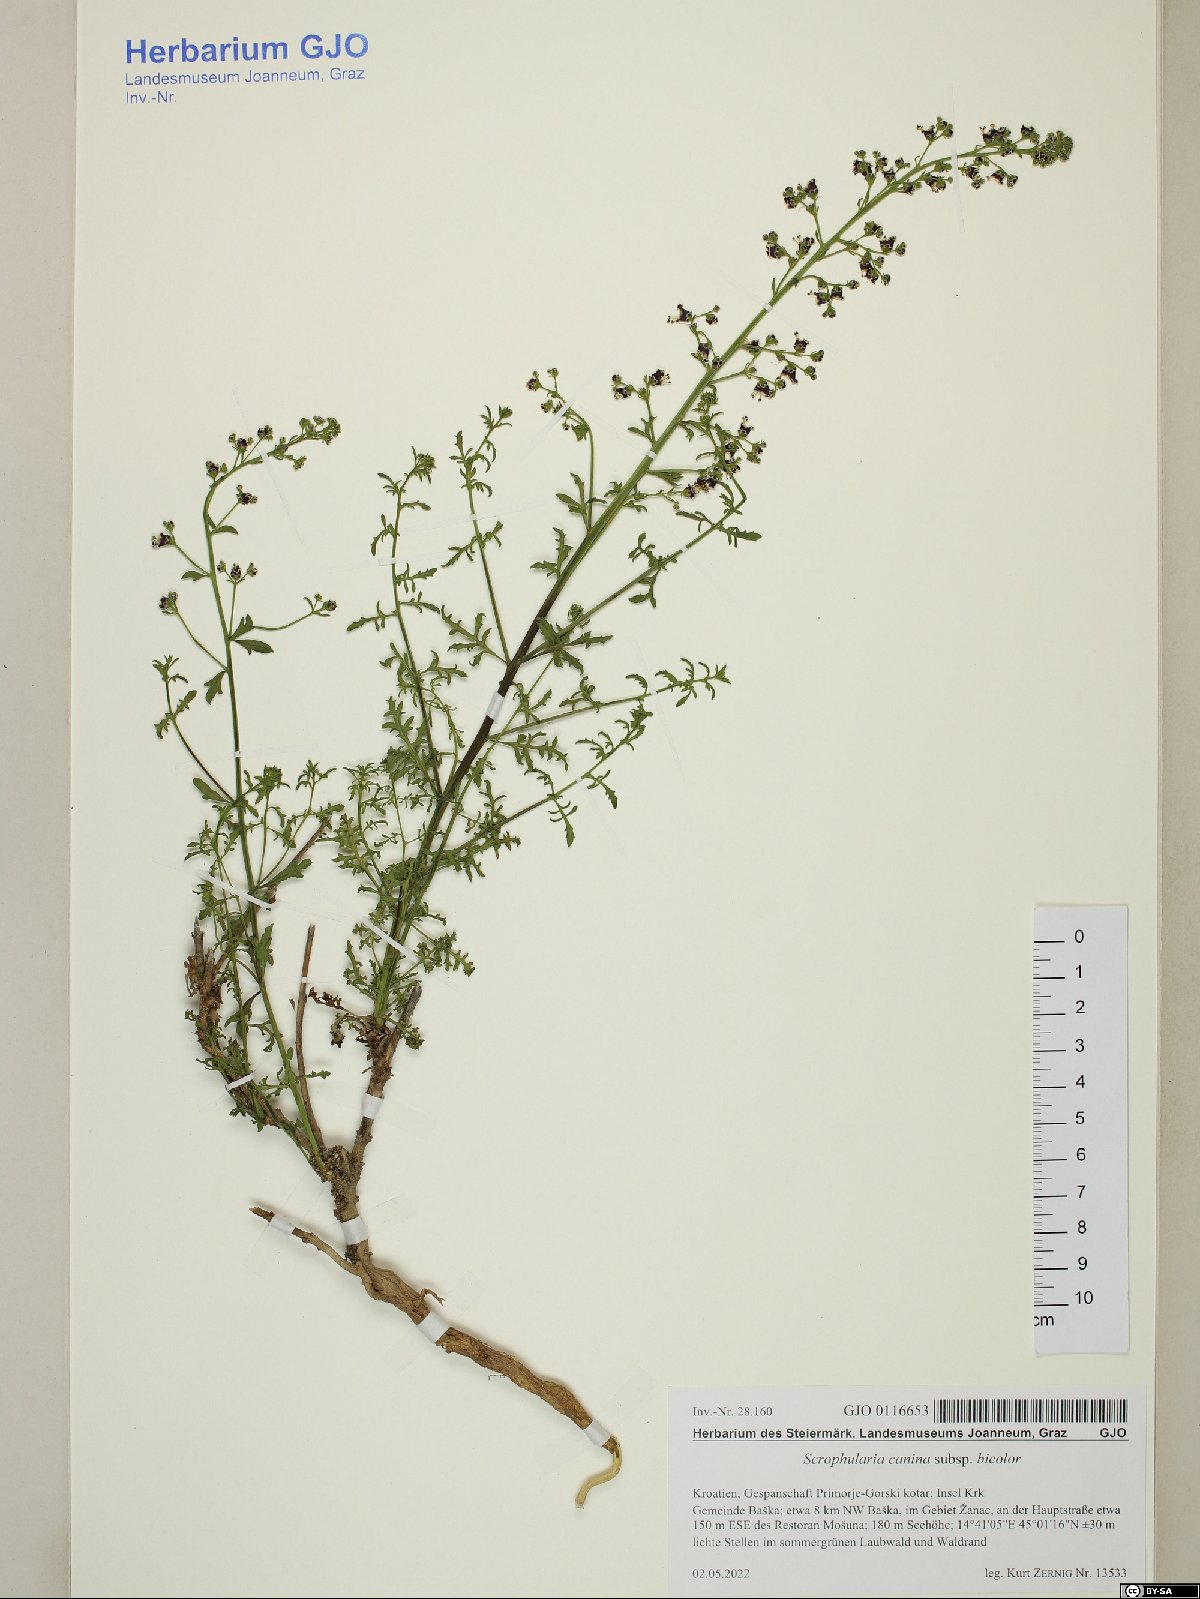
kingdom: Plantae
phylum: Tracheophyta
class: Magnoliopsida
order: Lamiales
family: Scrophulariaceae
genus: Scrophularia
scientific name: Scrophularia canina
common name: French figwort
